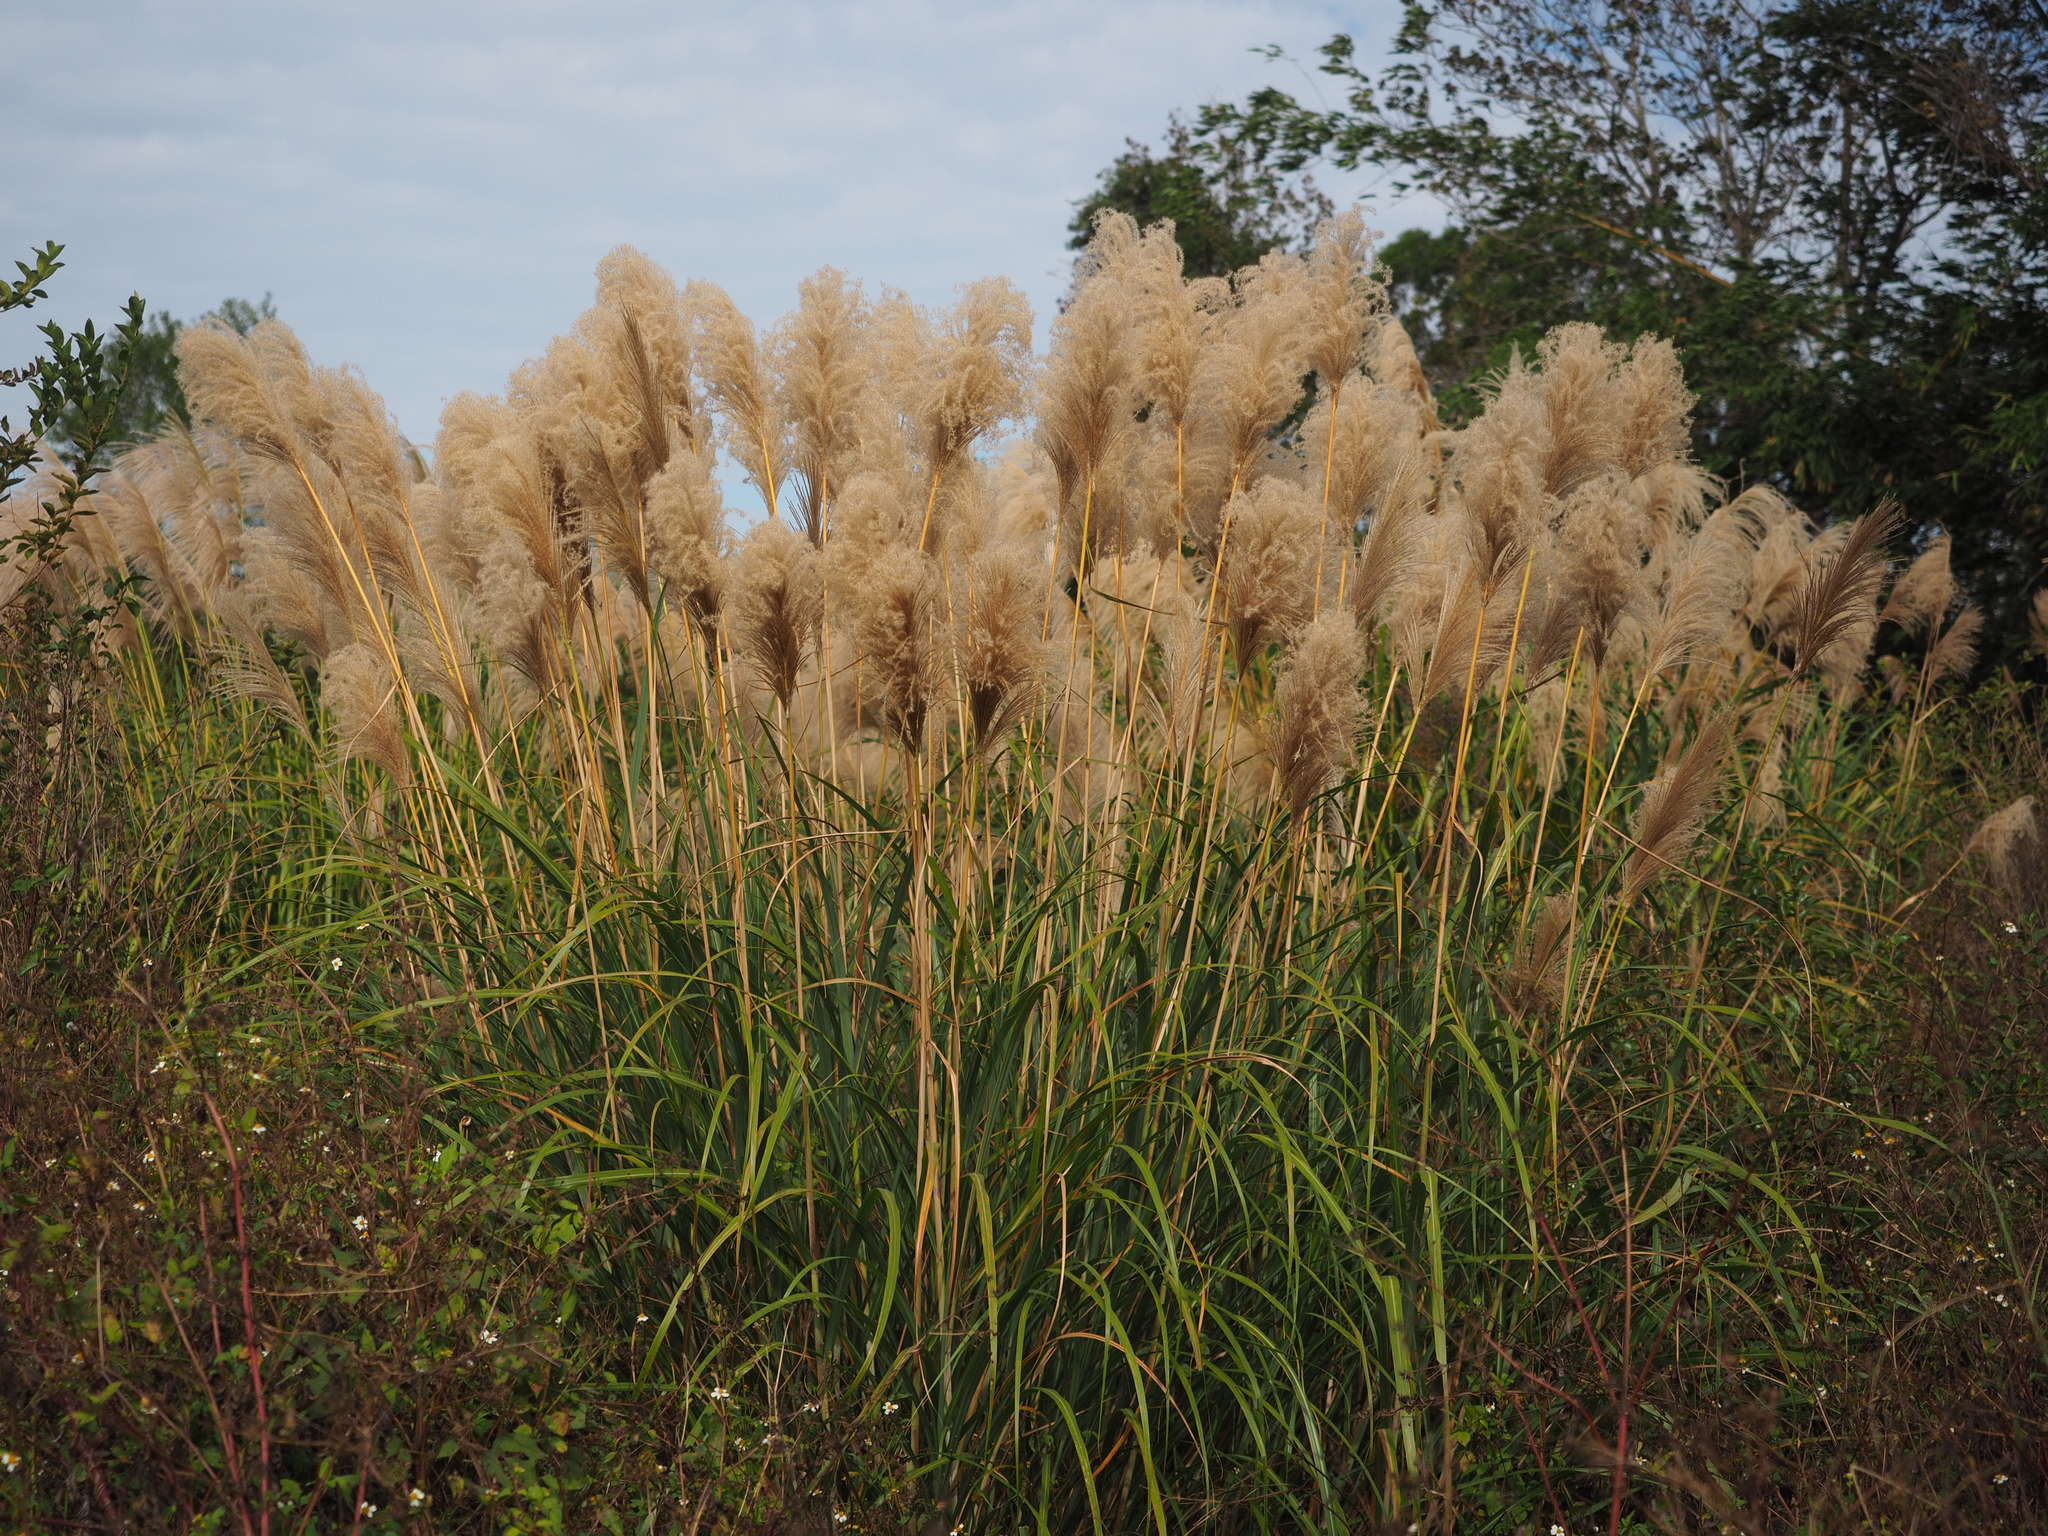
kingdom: Plantae
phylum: Tracheophyta
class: Liliopsida
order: Poales
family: Poaceae
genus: Miscanthus
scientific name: Miscanthus sinensis
